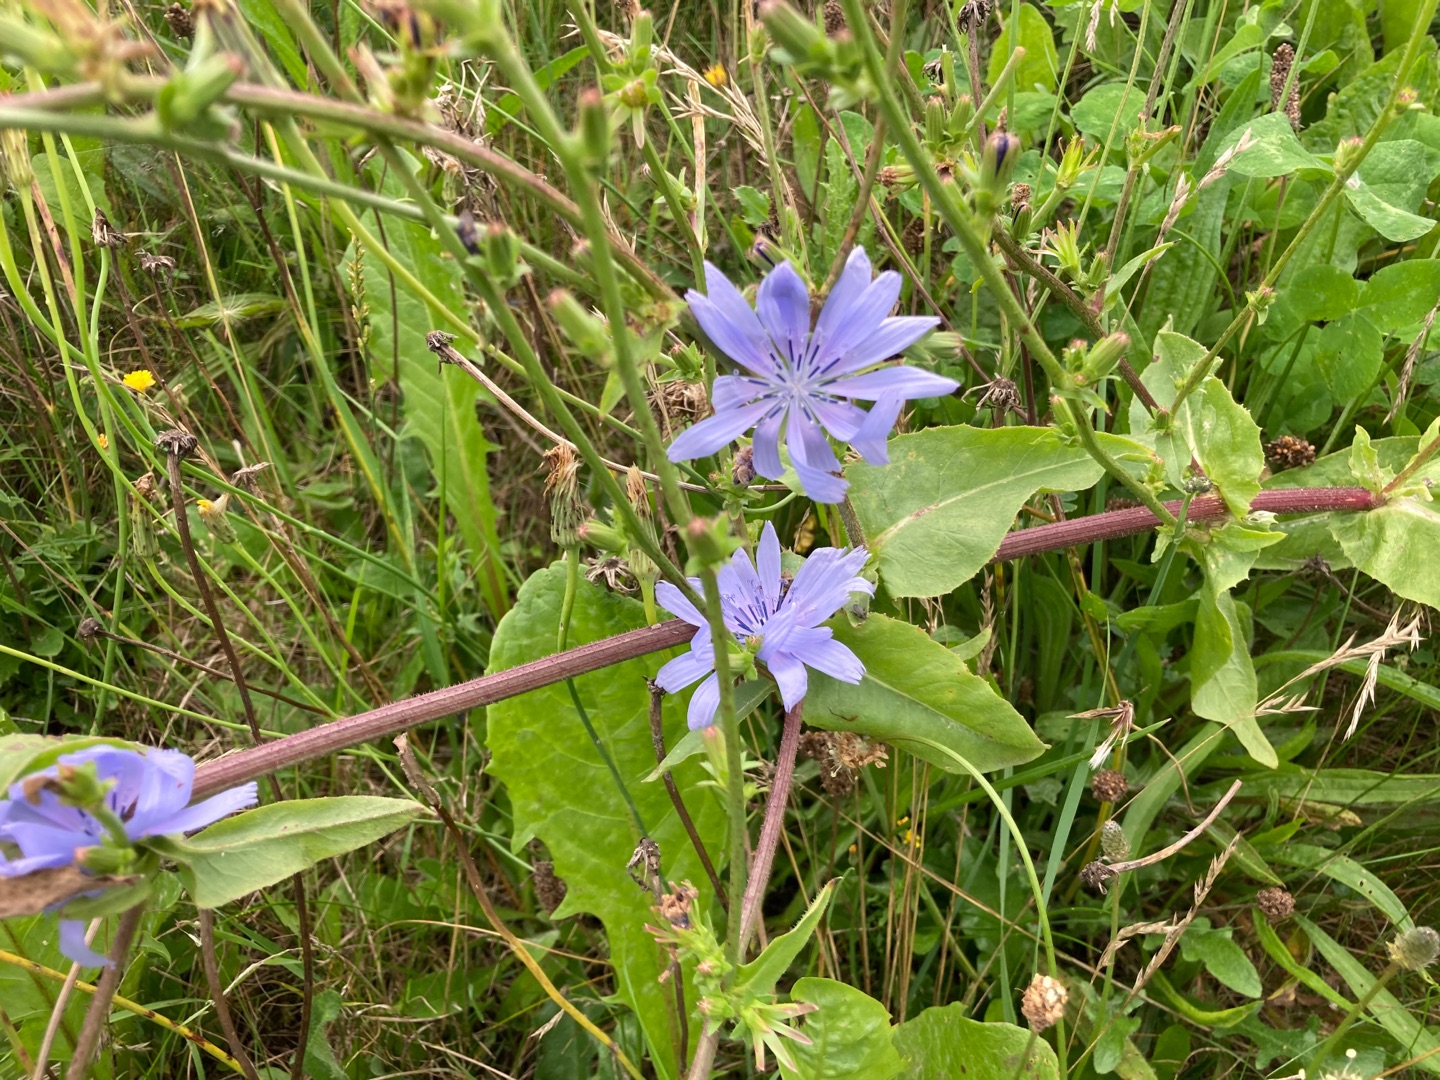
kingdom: Plantae
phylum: Tracheophyta
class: Magnoliopsida
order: Asterales
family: Asteraceae
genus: Cichorium
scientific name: Cichorium intybus
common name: Cikorie
